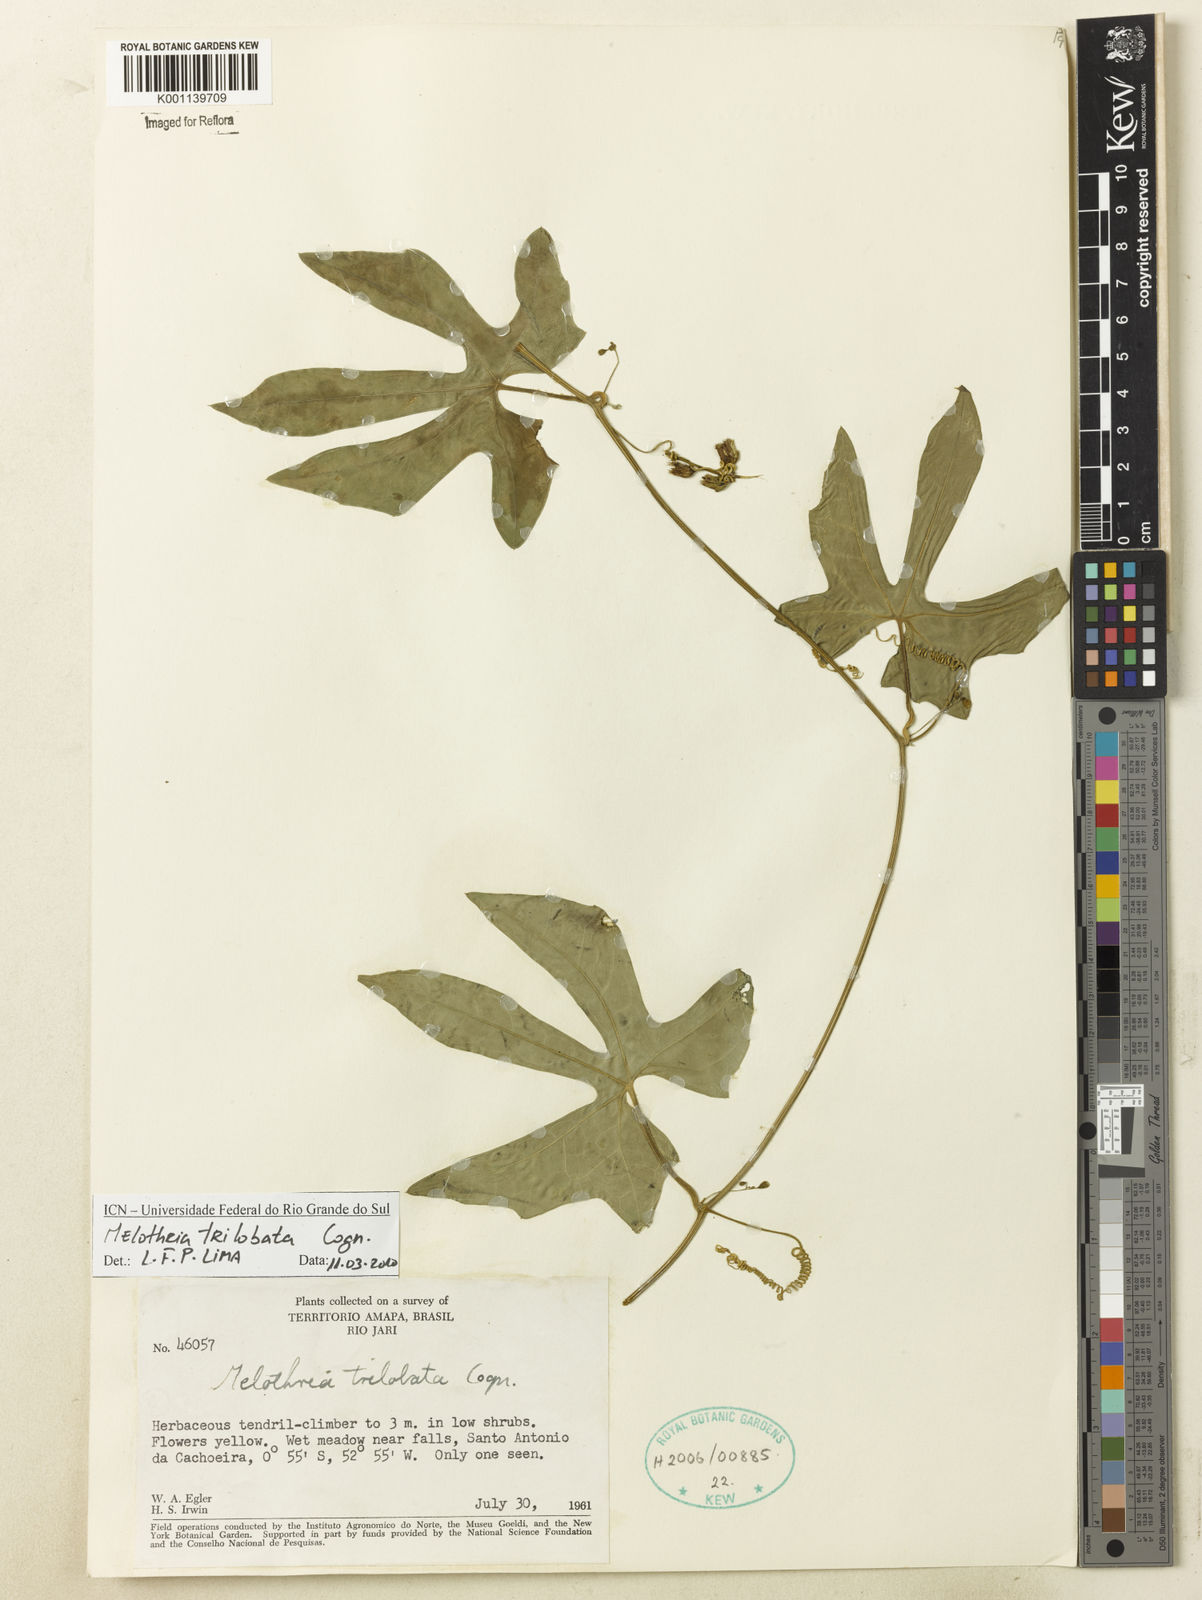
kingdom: Plantae
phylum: Tracheophyta
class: Magnoliopsida
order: Cucurbitales
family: Cucurbitaceae
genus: Melothria
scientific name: Melothria trilobata
